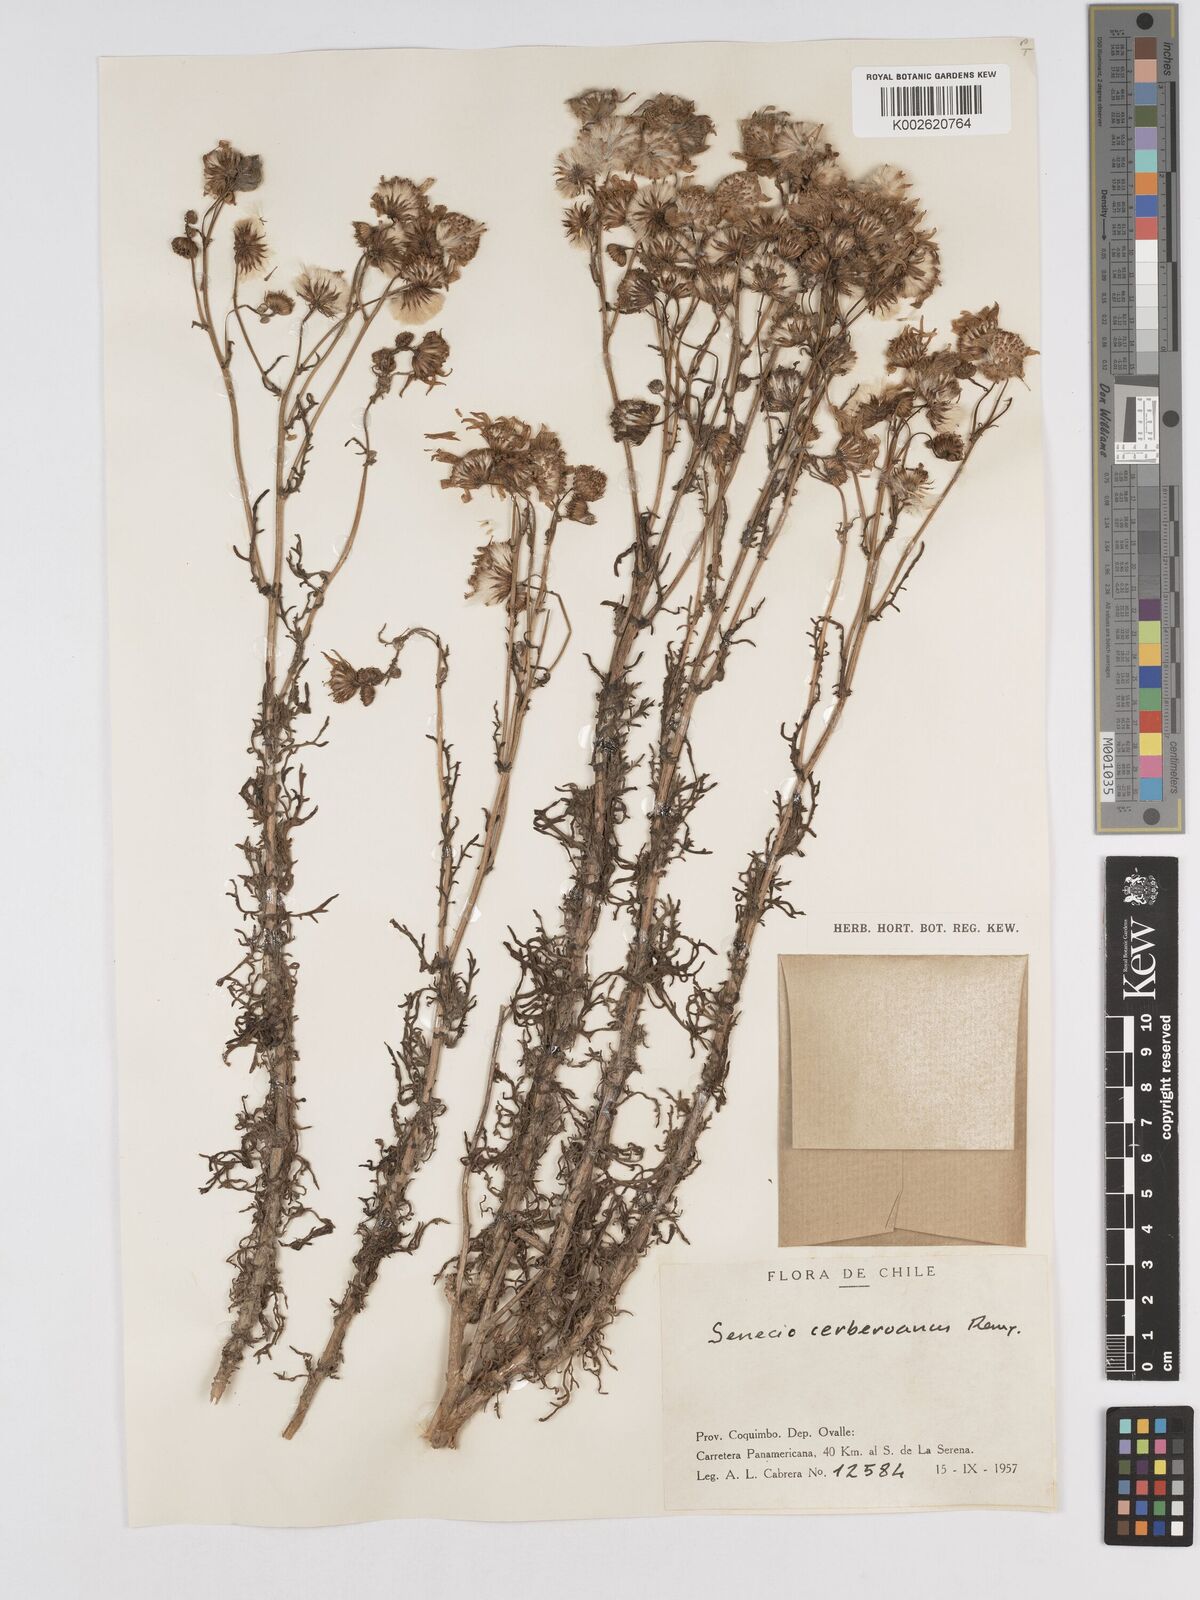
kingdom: Plantae
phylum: Tracheophyta
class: Magnoliopsida
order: Asterales
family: Asteraceae
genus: Senecio
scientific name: Senecio cerberoanus
